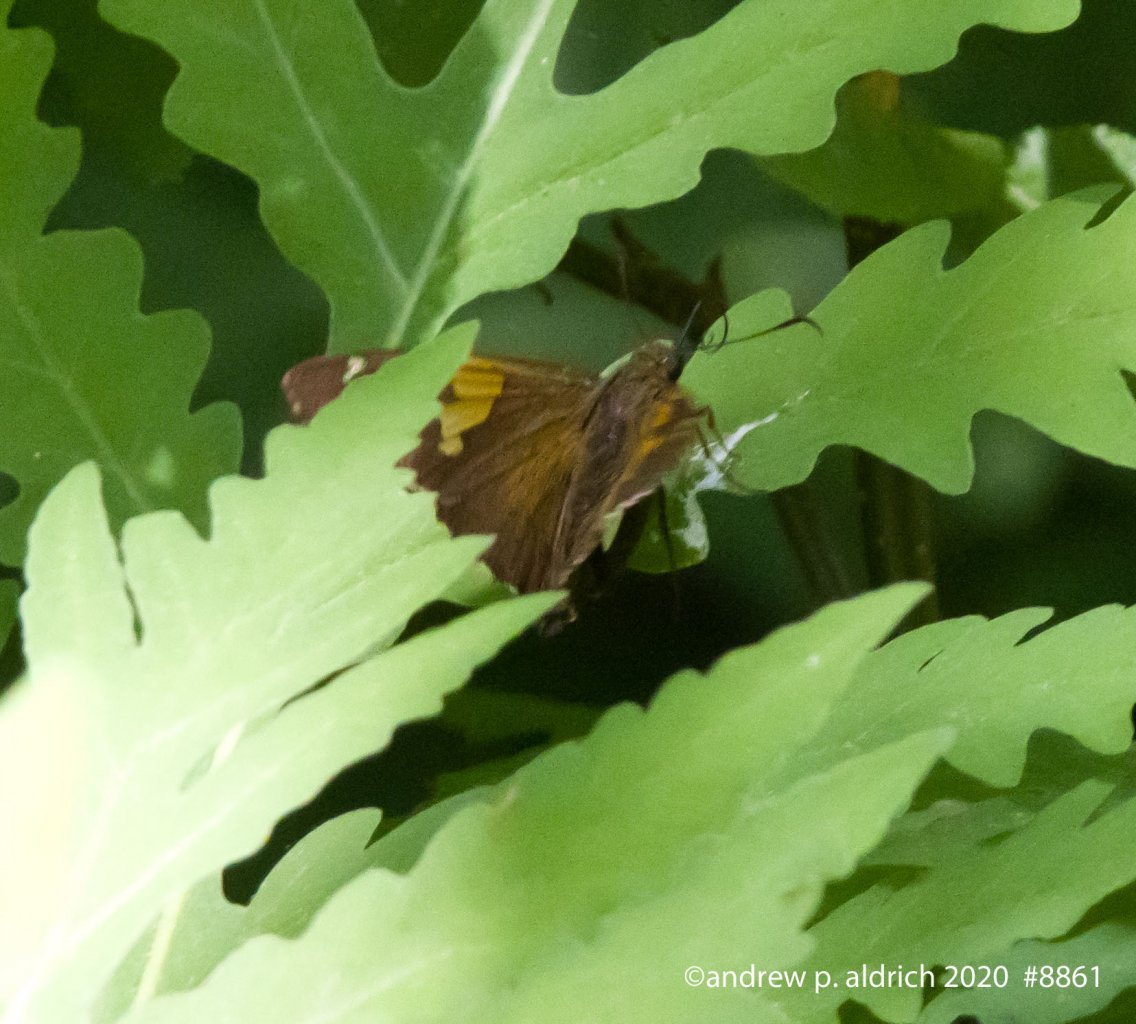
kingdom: Animalia
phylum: Arthropoda
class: Insecta
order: Lepidoptera
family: Hesperiidae
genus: Epargyreus
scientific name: Epargyreus clarus
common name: Silver-spotted Skipper
